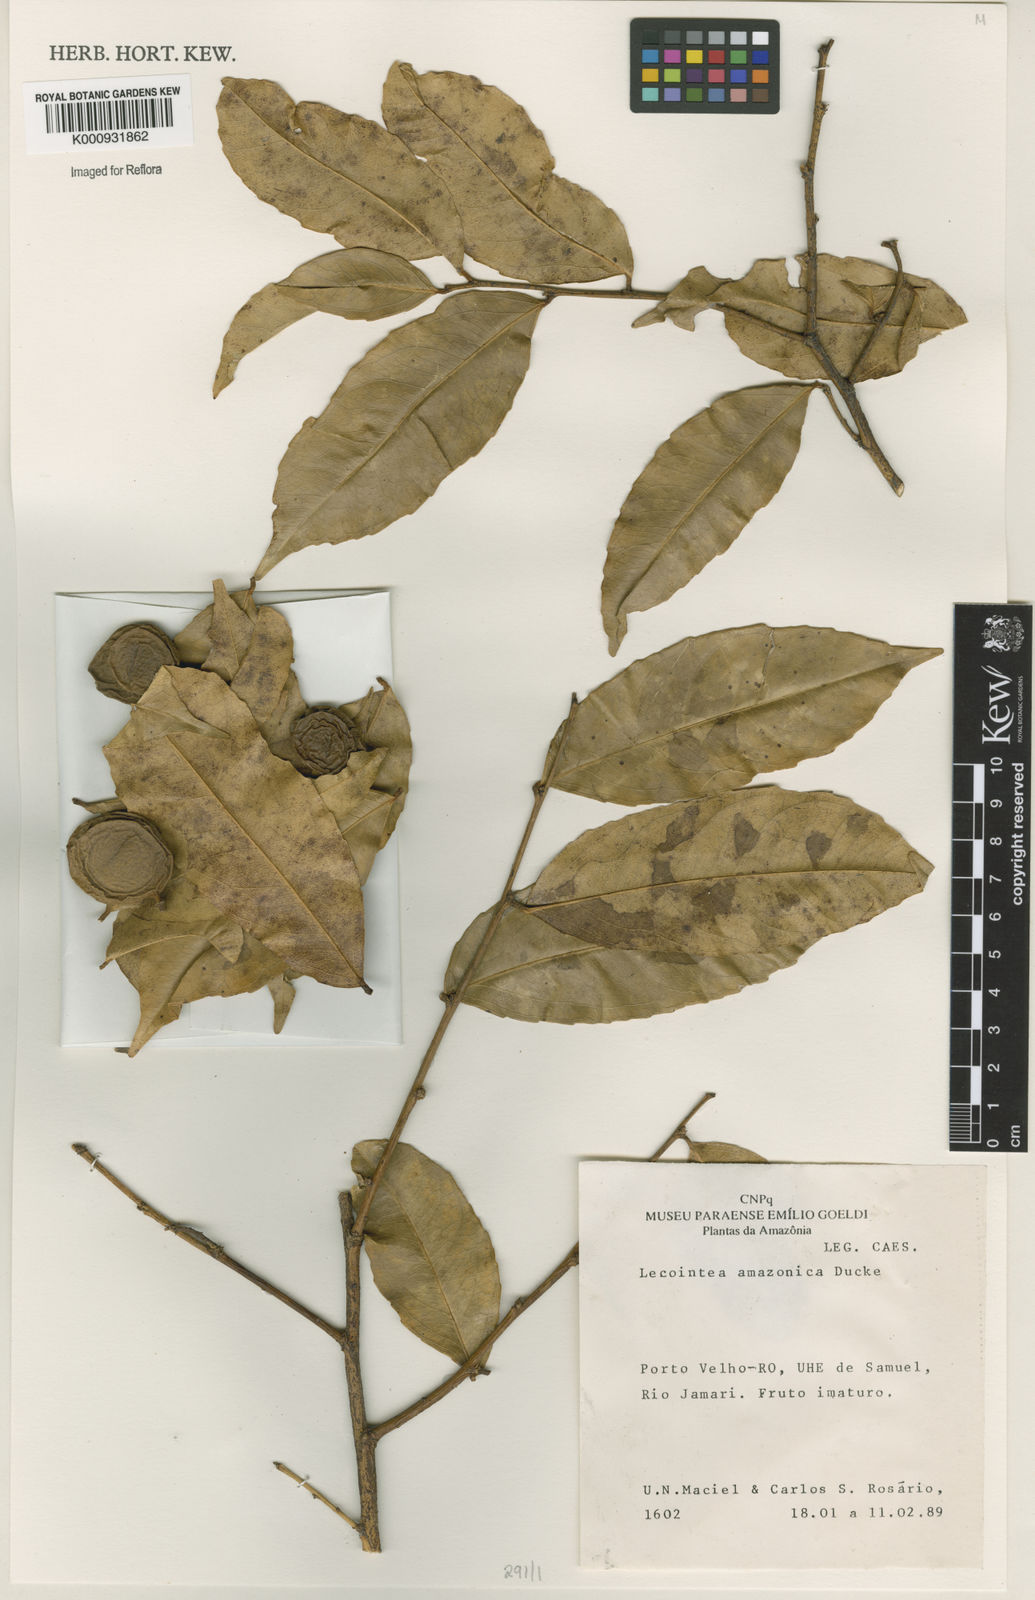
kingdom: Plantae
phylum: Tracheophyta
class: Magnoliopsida
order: Fabales
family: Fabaceae
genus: Lecointea
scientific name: Lecointea amazonica
